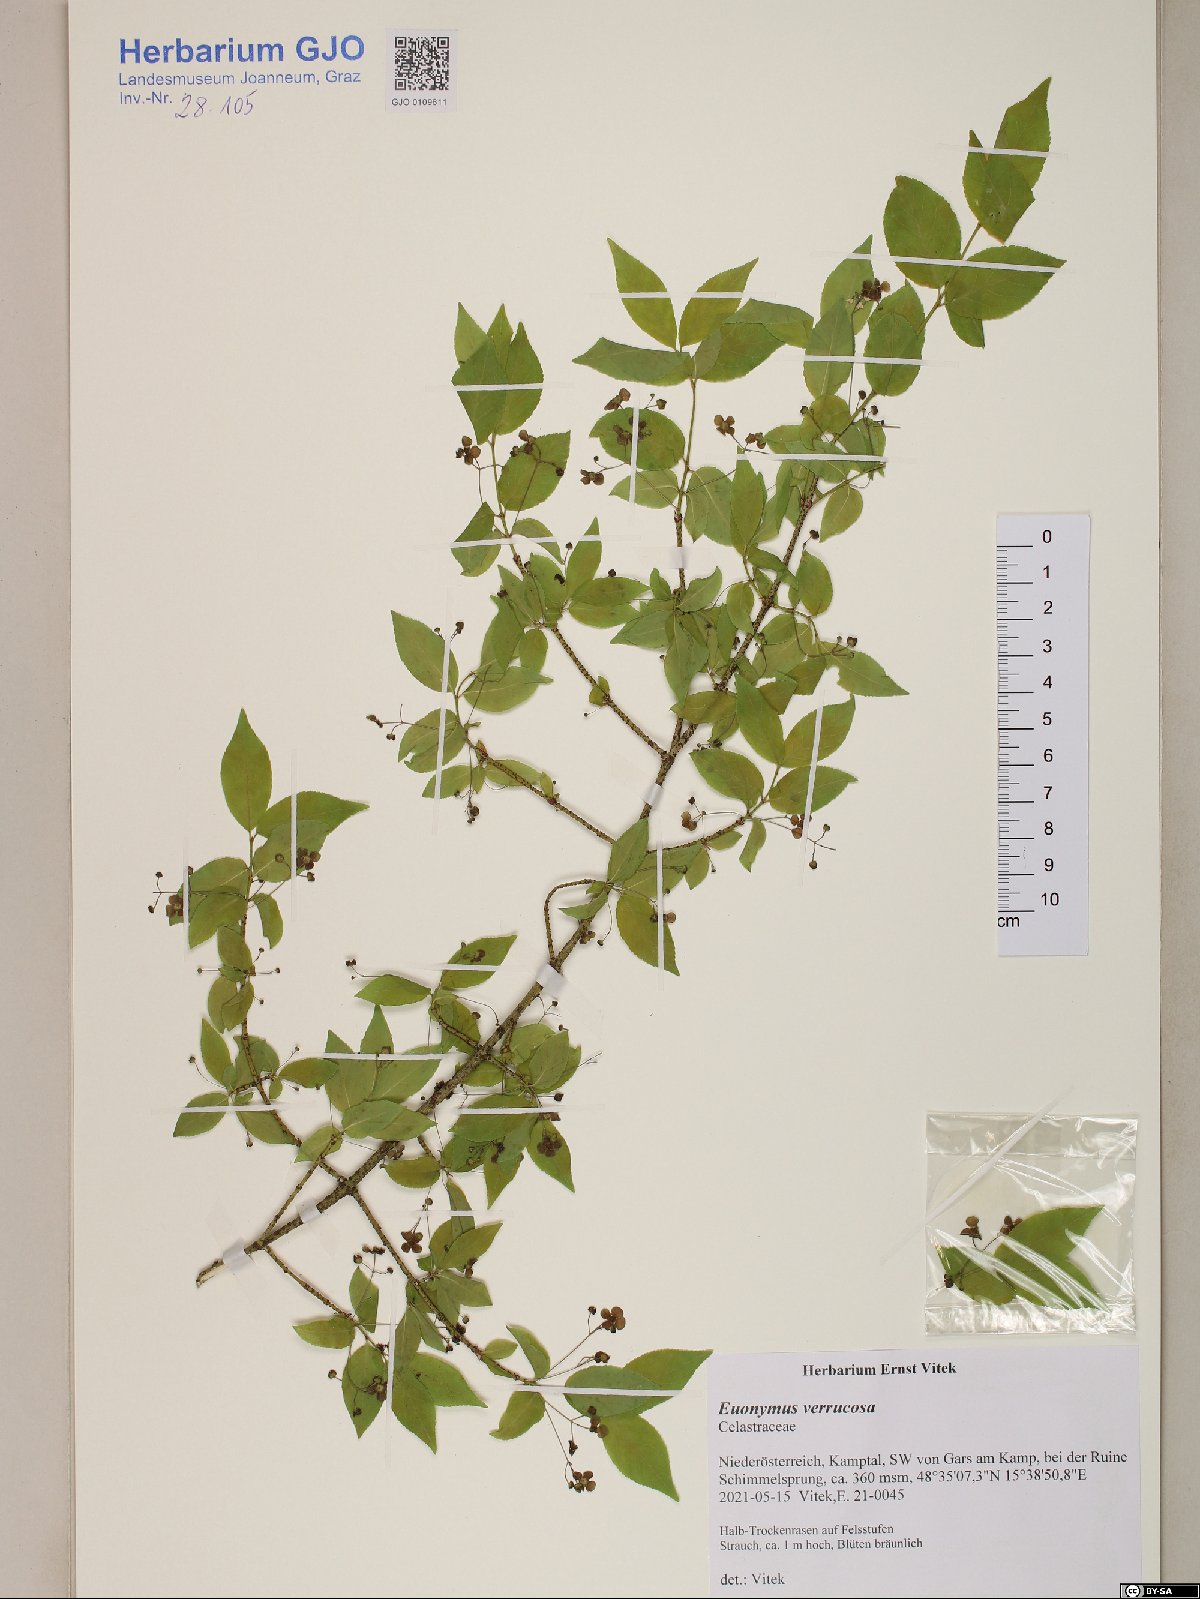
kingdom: Plantae
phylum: Tracheophyta
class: Magnoliopsida
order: Celastrales
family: Celastraceae
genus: Euonymus
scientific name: Euonymus verrucosus
